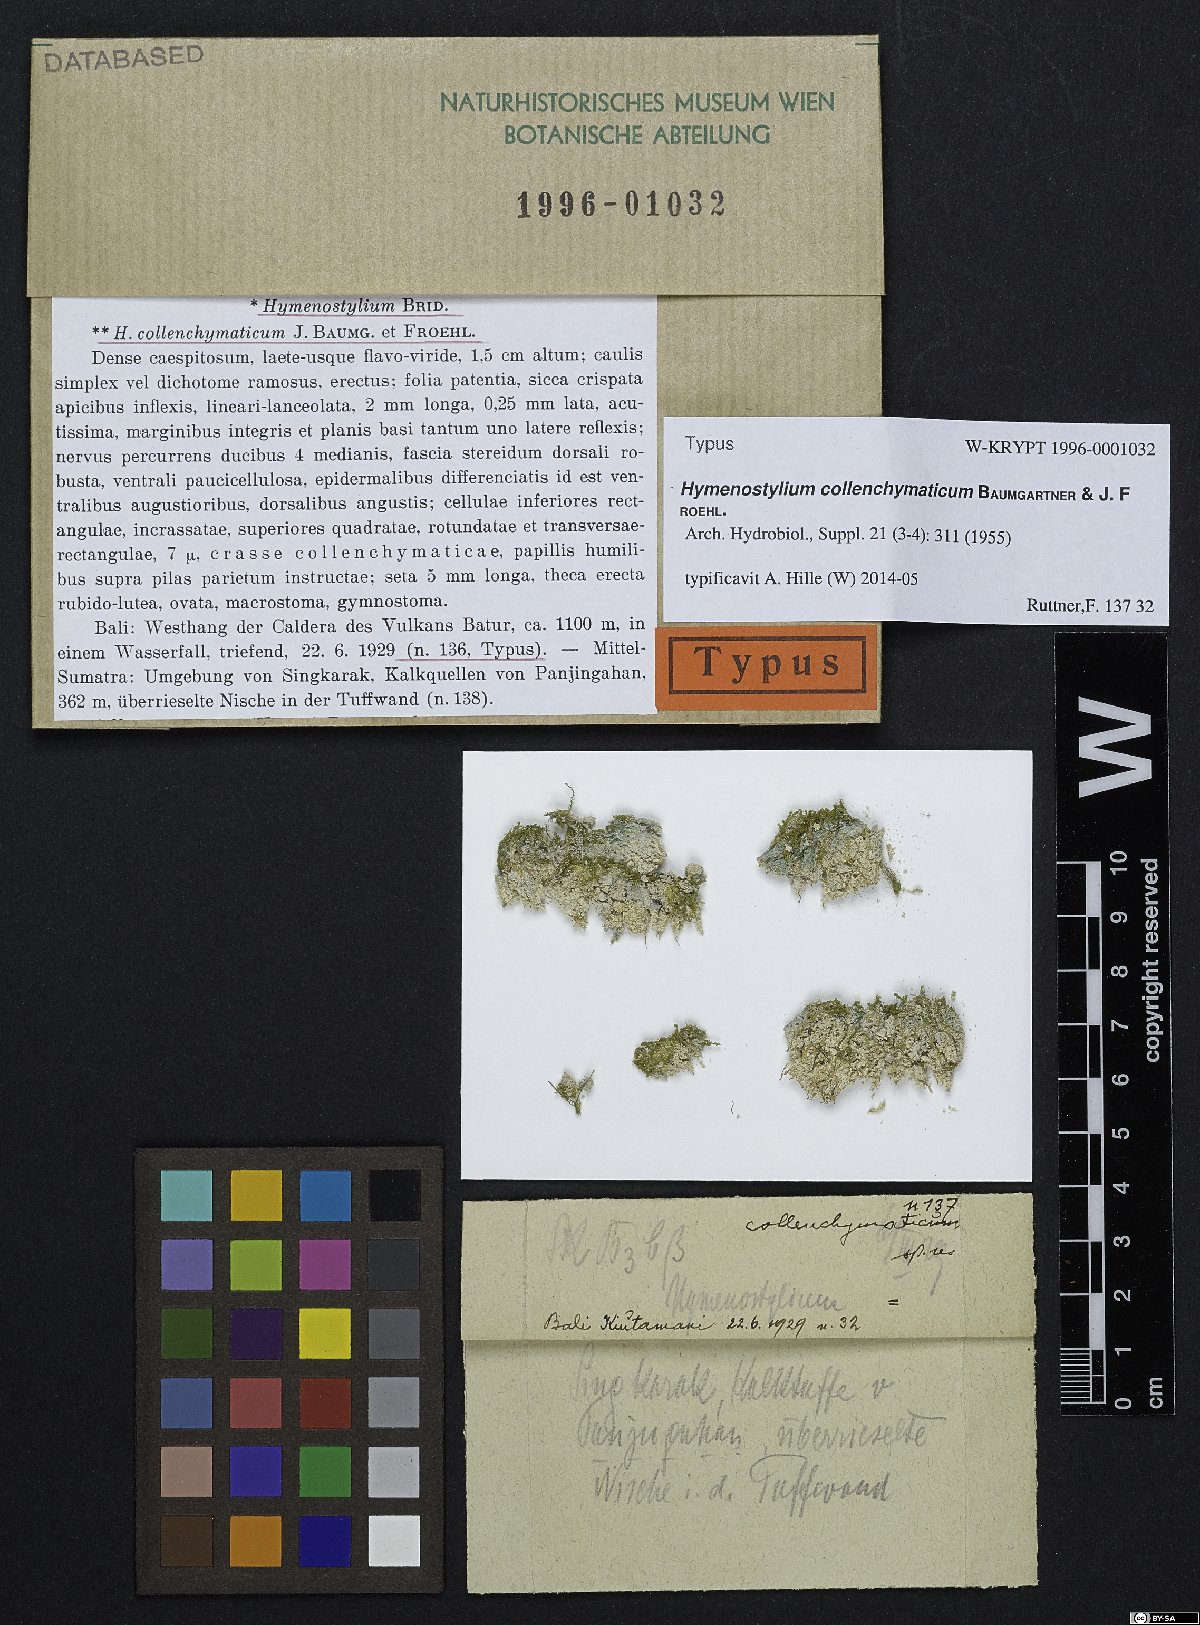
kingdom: Plantae
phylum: Bryophyta
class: Bryopsida
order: Pottiales
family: Pottiaceae
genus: Hymenostylium
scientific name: Hymenostylium recurvirostrum
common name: Hook-beak tufa-moss
